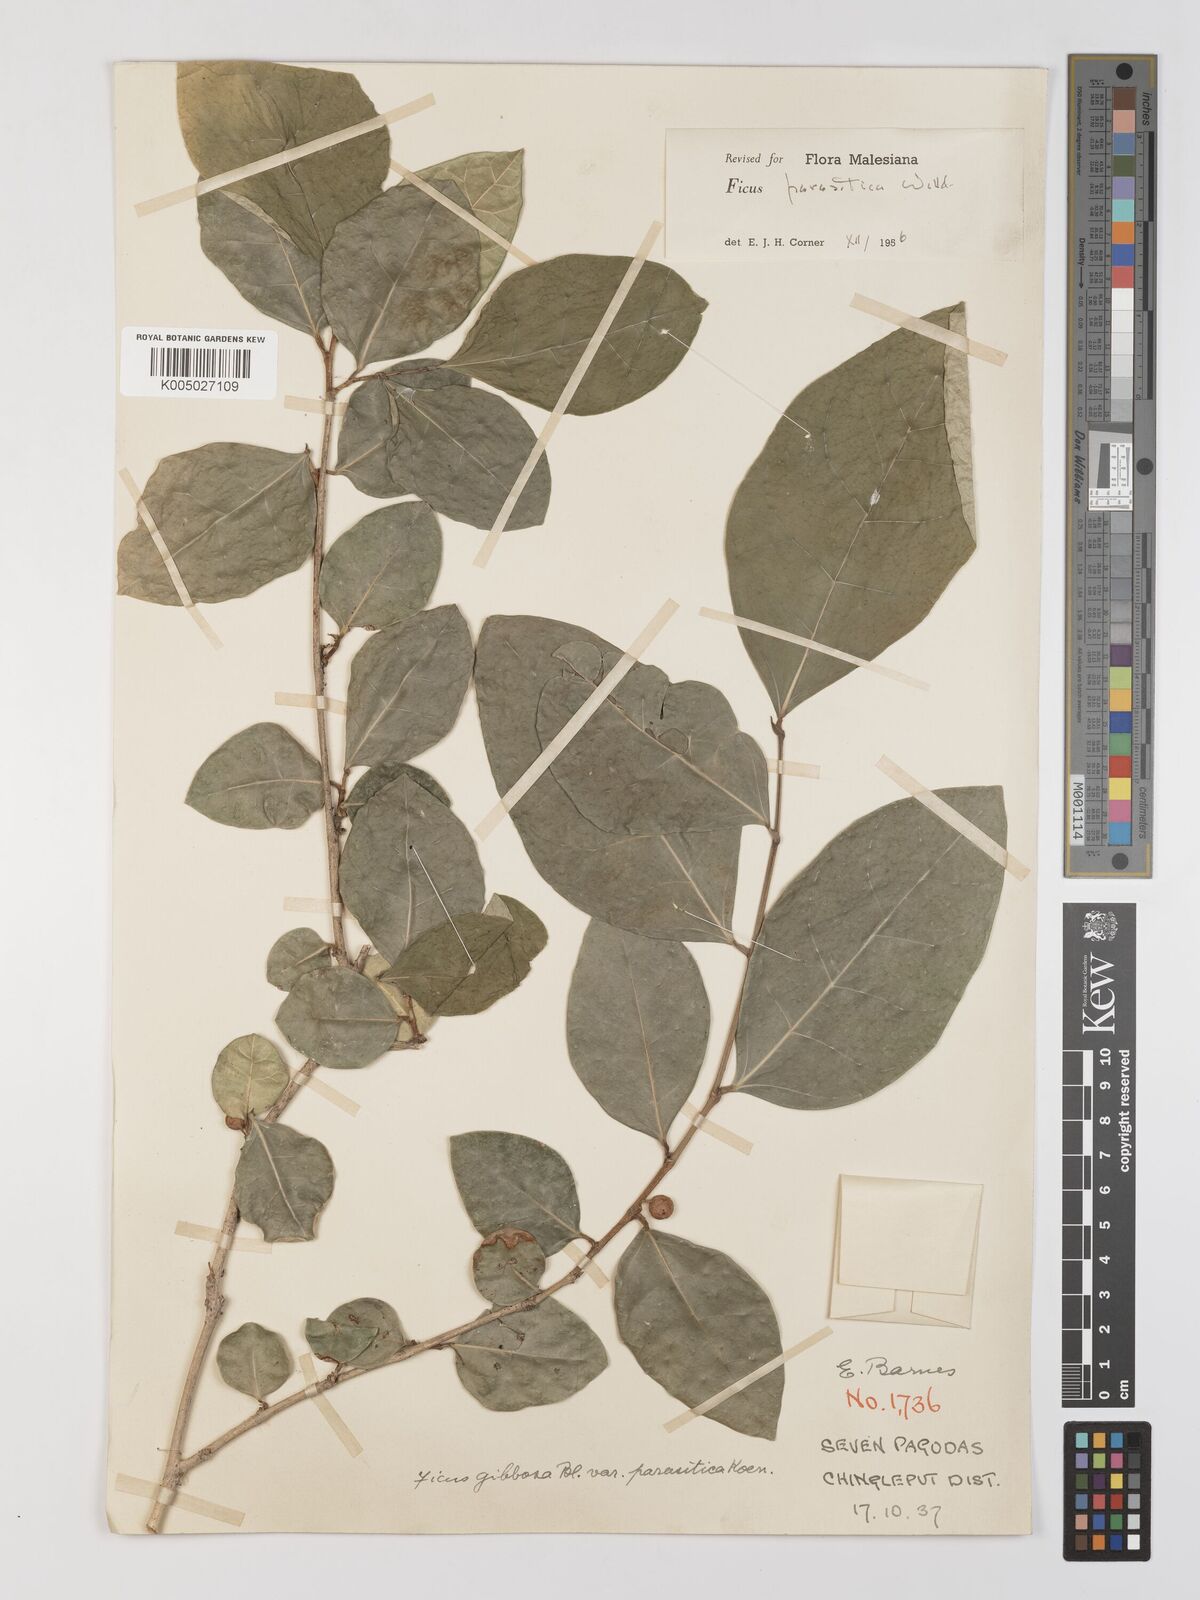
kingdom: Plantae
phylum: Tracheophyta
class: Magnoliopsida
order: Rosales
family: Moraceae
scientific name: Moraceae
